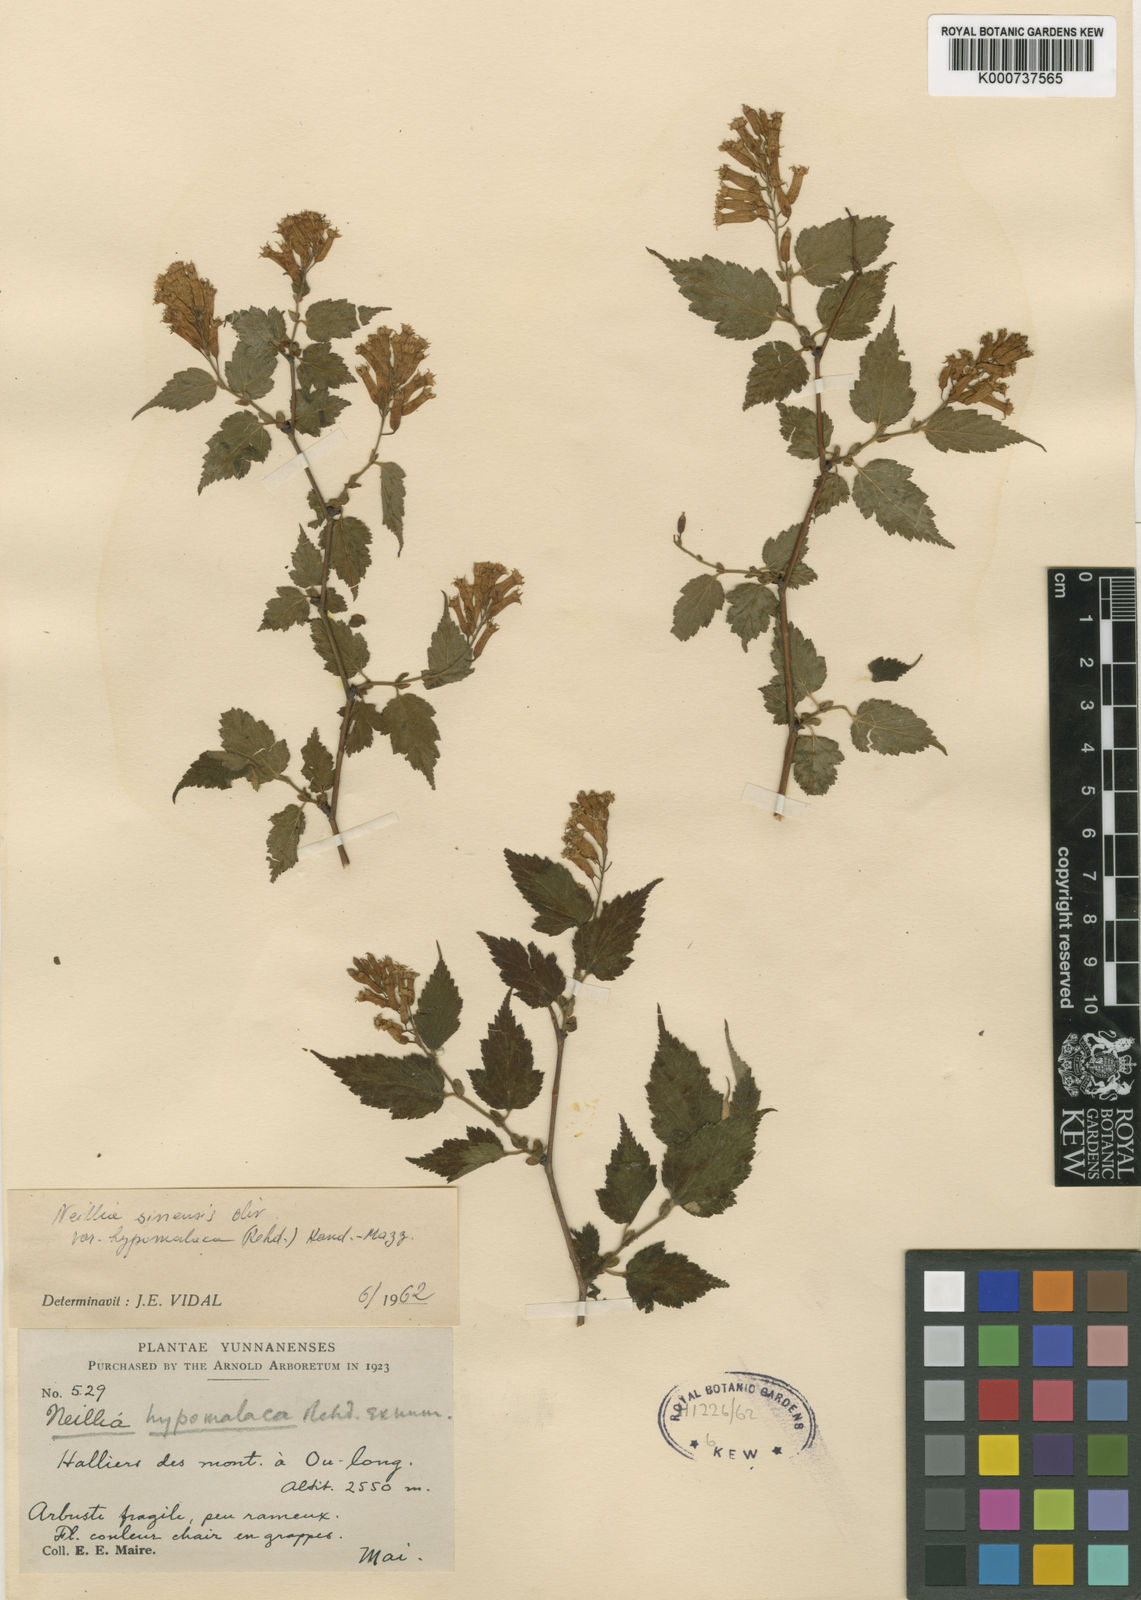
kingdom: Plantae
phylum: Tracheophyta
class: Magnoliopsida
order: Rosales
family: Rosaceae
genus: Neillia
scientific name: Neillia sinensis
